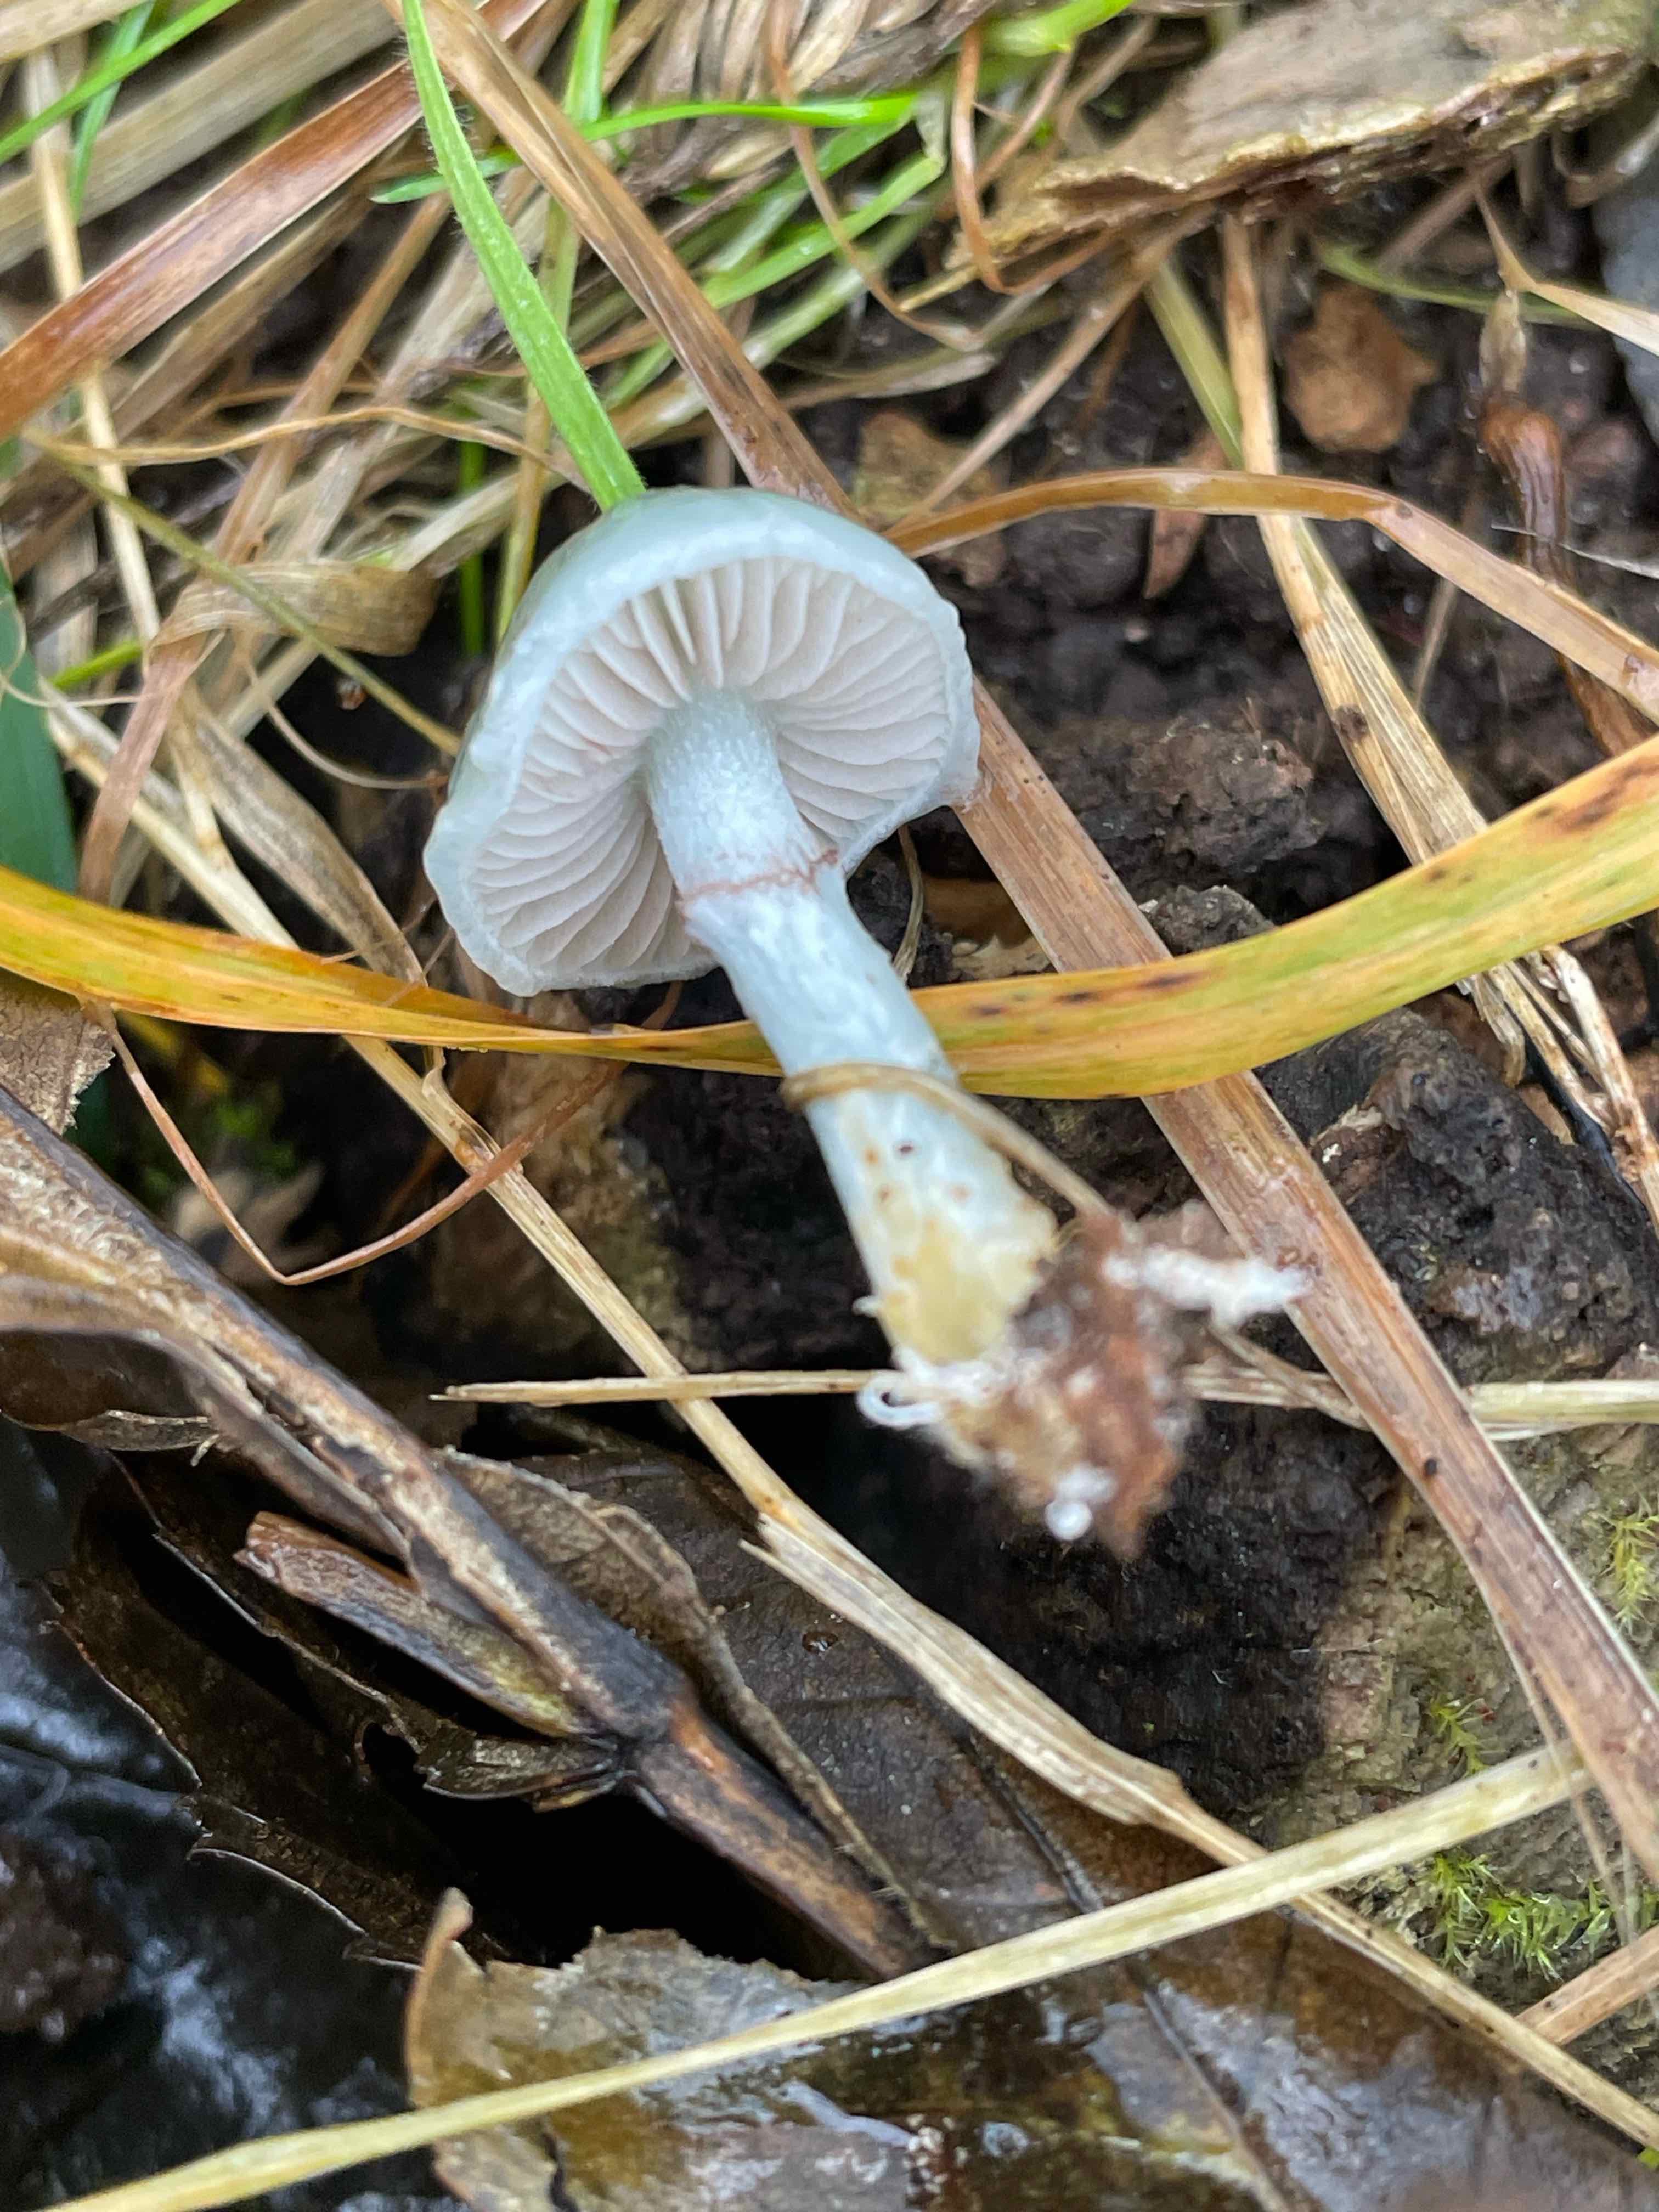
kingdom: Fungi
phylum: Basidiomycota
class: Agaricomycetes
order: Agaricales
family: Strophariaceae
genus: Stropharia
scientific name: Stropharia cyanea
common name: blågrøn bredblad
